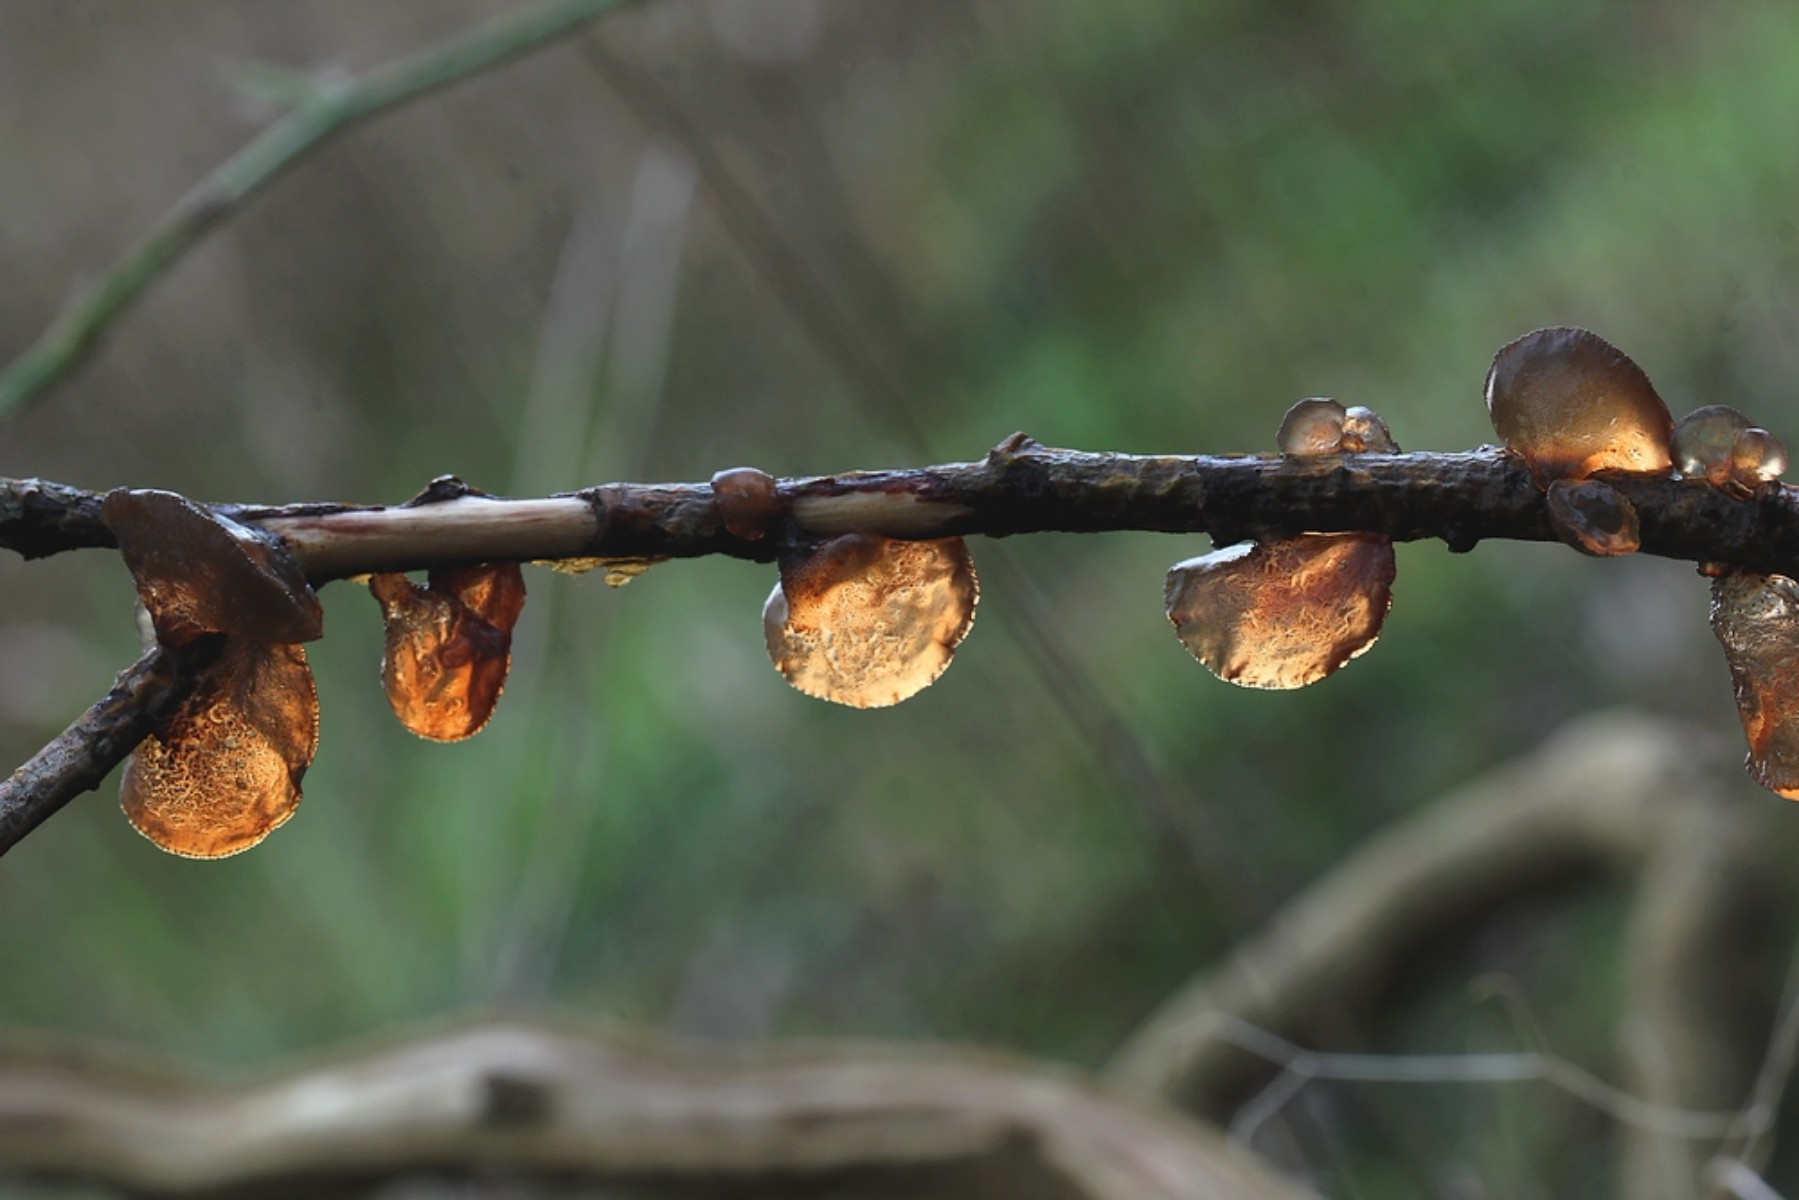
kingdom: Fungi
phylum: Basidiomycota
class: Agaricomycetes
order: Auriculariales
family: Auriculariaceae
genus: Exidia
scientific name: Exidia recisa
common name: pile-bævretop
